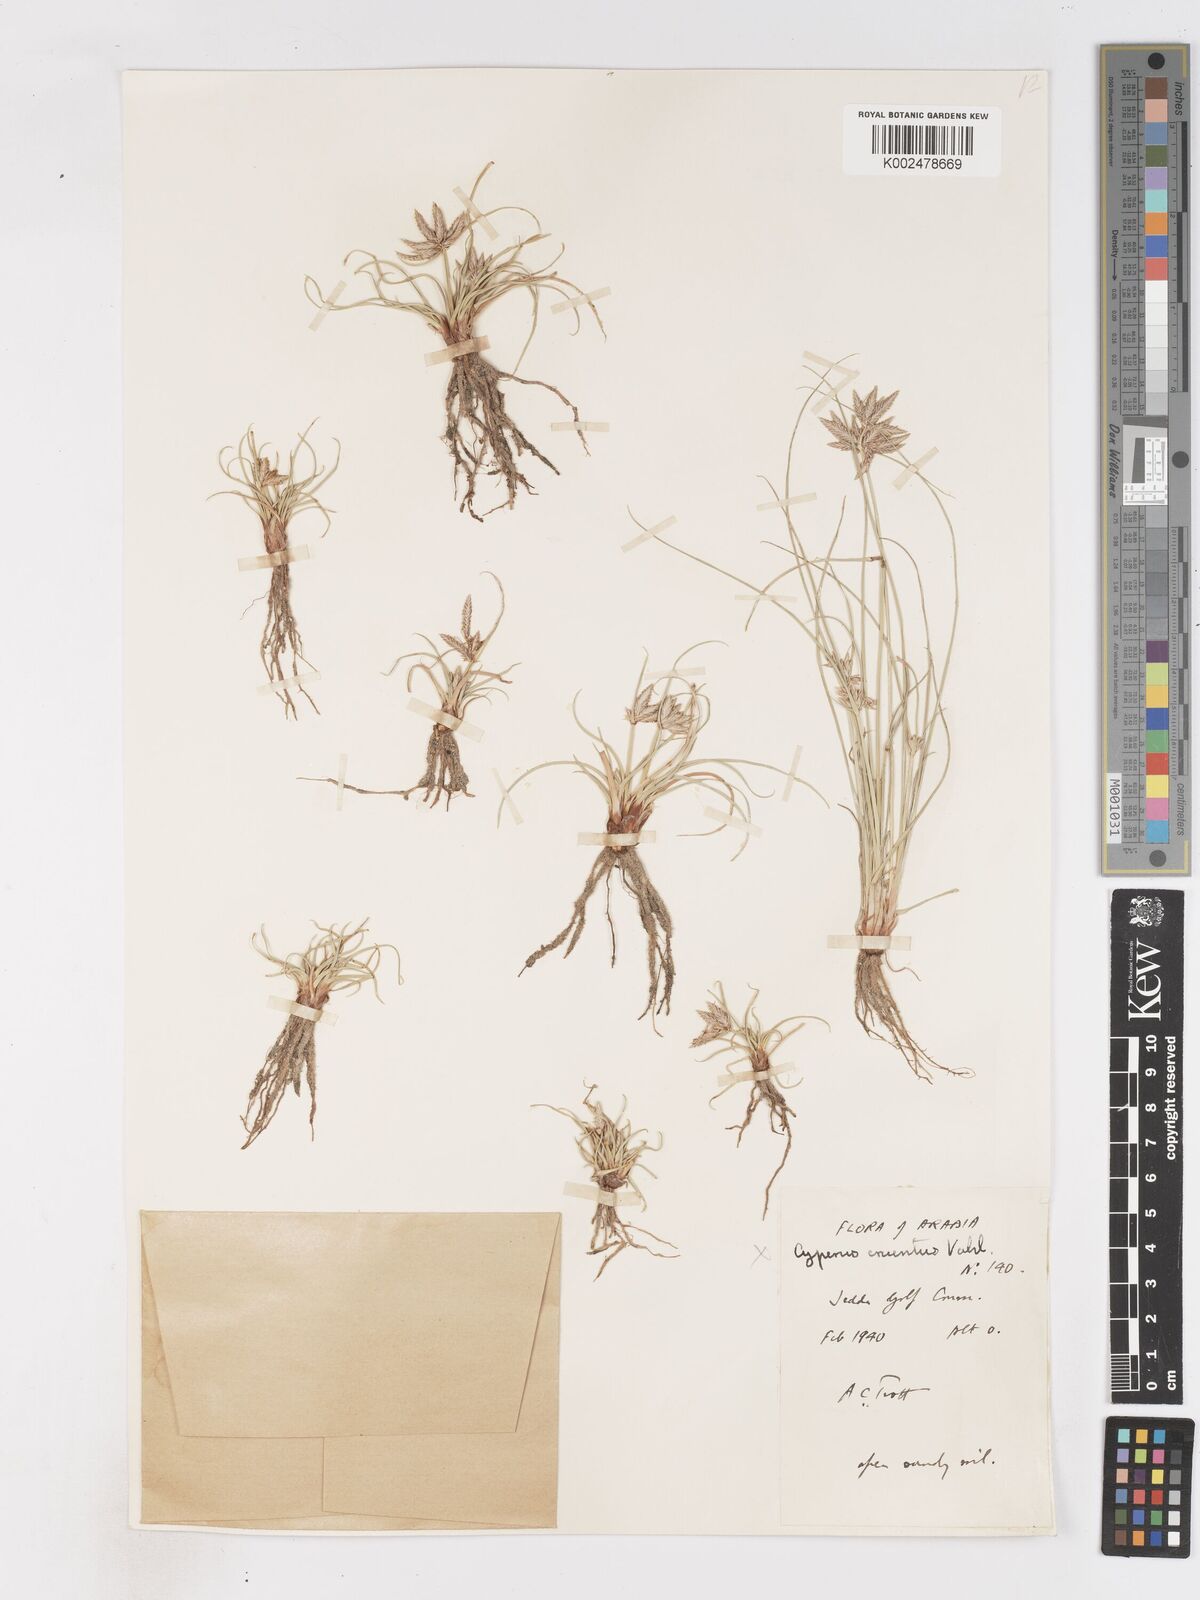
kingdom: Plantae
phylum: Tracheophyta
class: Liliopsida
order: Poales
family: Cyperaceae
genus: Cyperus
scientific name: Cyperus conglomeratus
